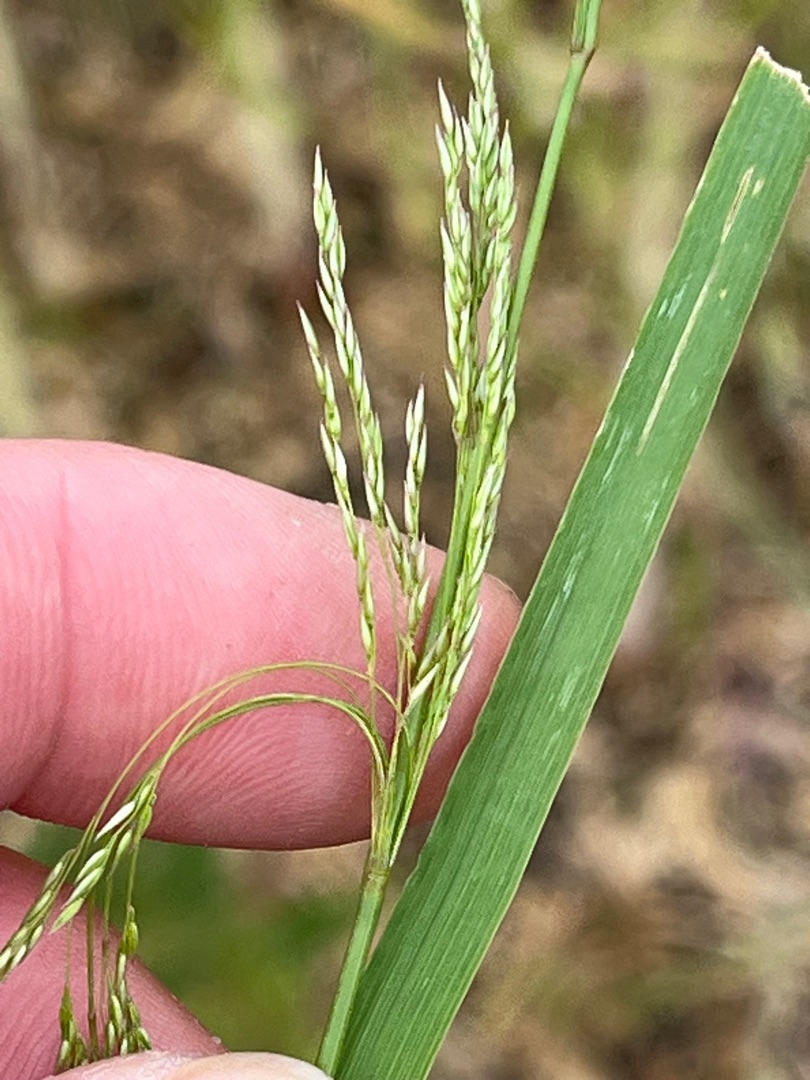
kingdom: Plantae
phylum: Tracheophyta
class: Liliopsida
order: Poales
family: Poaceae
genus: Agrostis
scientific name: Agrostis gigantea
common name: Stortoppet hvene
